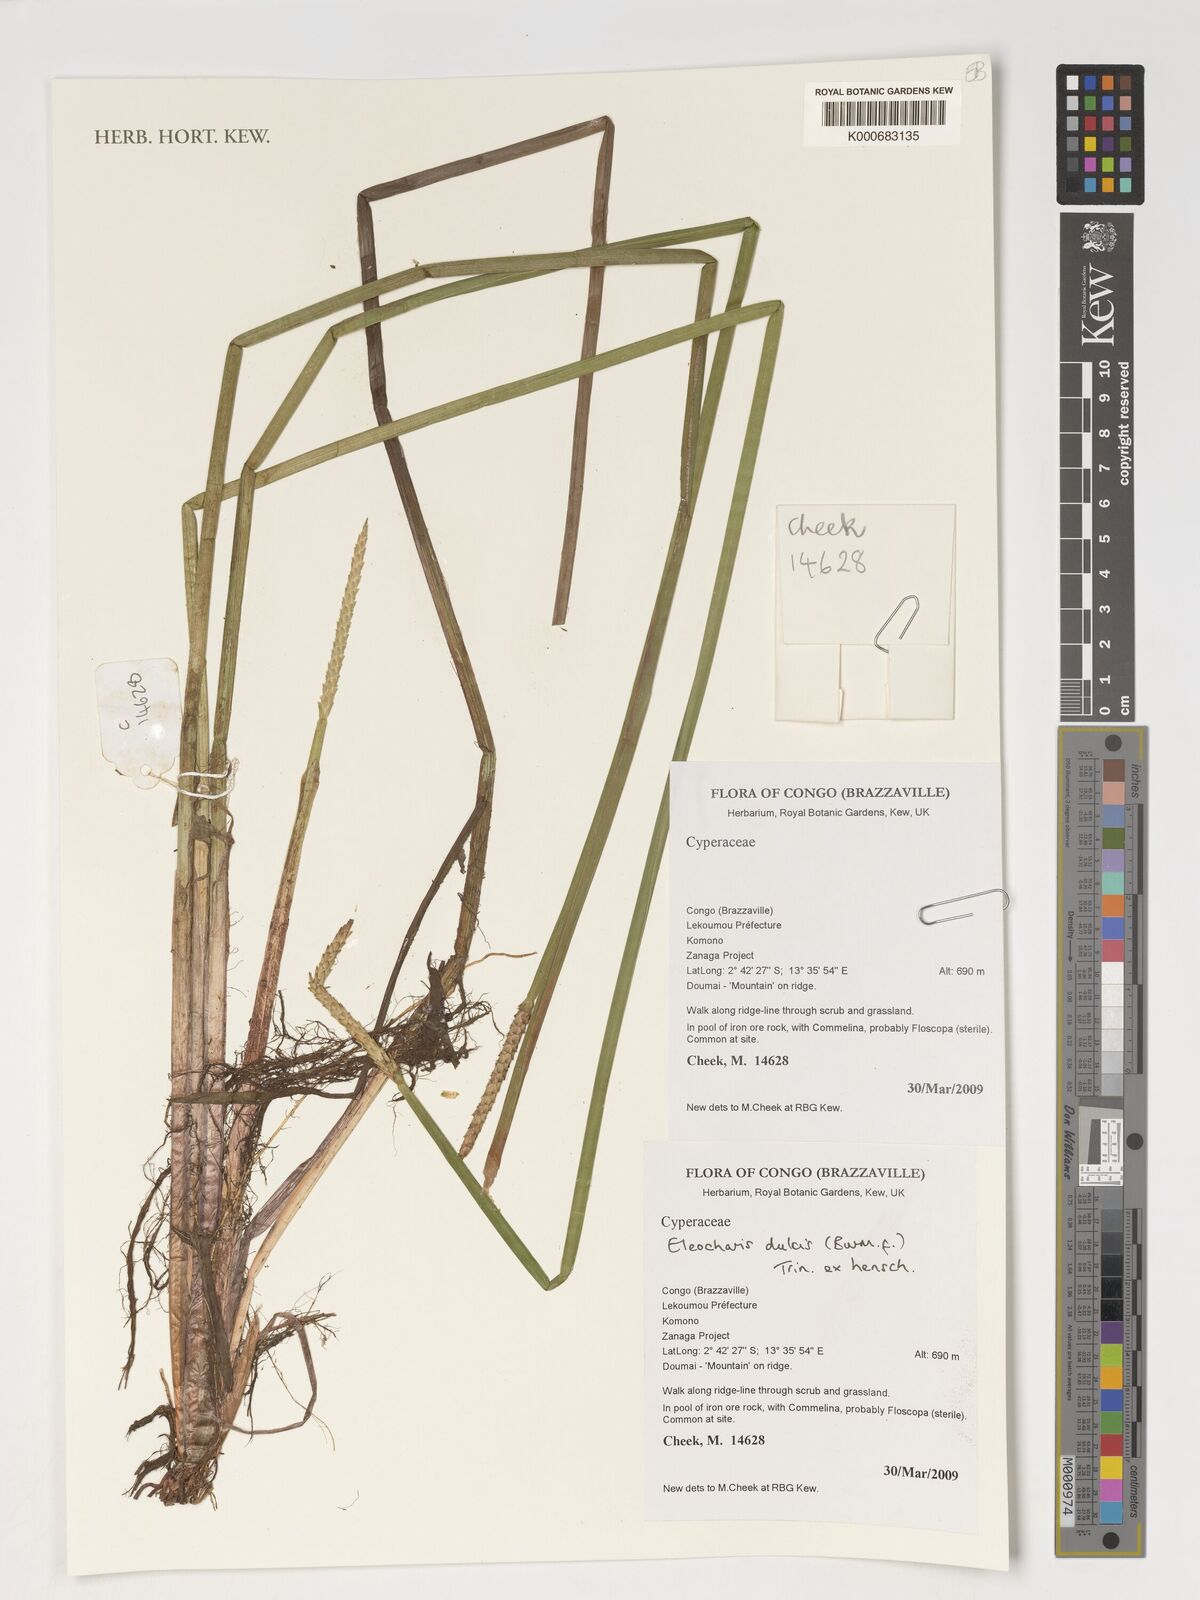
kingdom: Plantae
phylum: Tracheophyta
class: Liliopsida
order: Poales
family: Cyperaceae
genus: Eleocharis
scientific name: Eleocharis dulcis
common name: Chinese water chestnut
